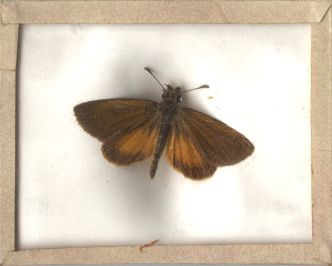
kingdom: Animalia
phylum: Arthropoda
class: Insecta
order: Lepidoptera
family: Hesperiidae
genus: Ancyloxypha
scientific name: Ancyloxypha numitor
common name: Least Skipper
